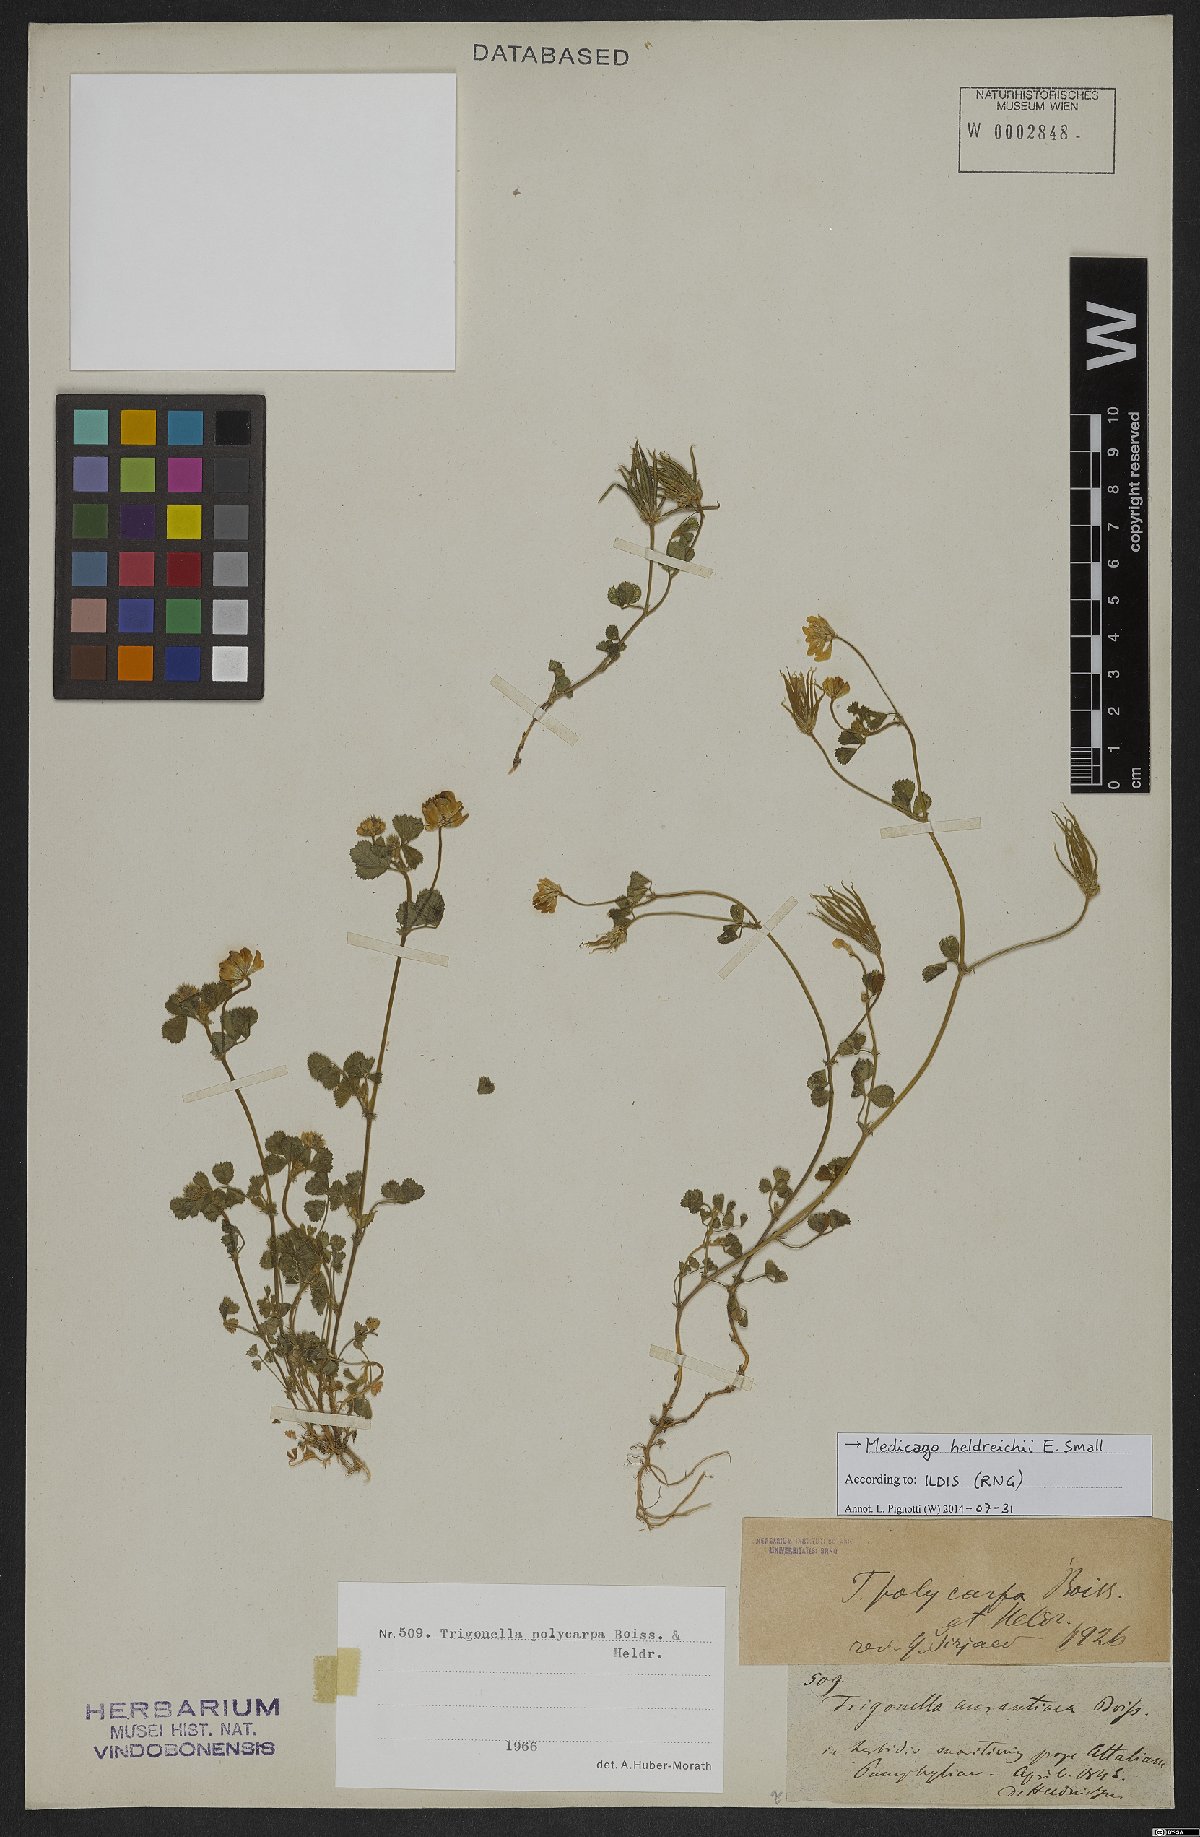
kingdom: Plantae
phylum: Tracheophyta
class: Magnoliopsida
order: Fabales
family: Fabaceae
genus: Medicago
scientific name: Medicago heldreichii
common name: Heldreich's alfalfa
